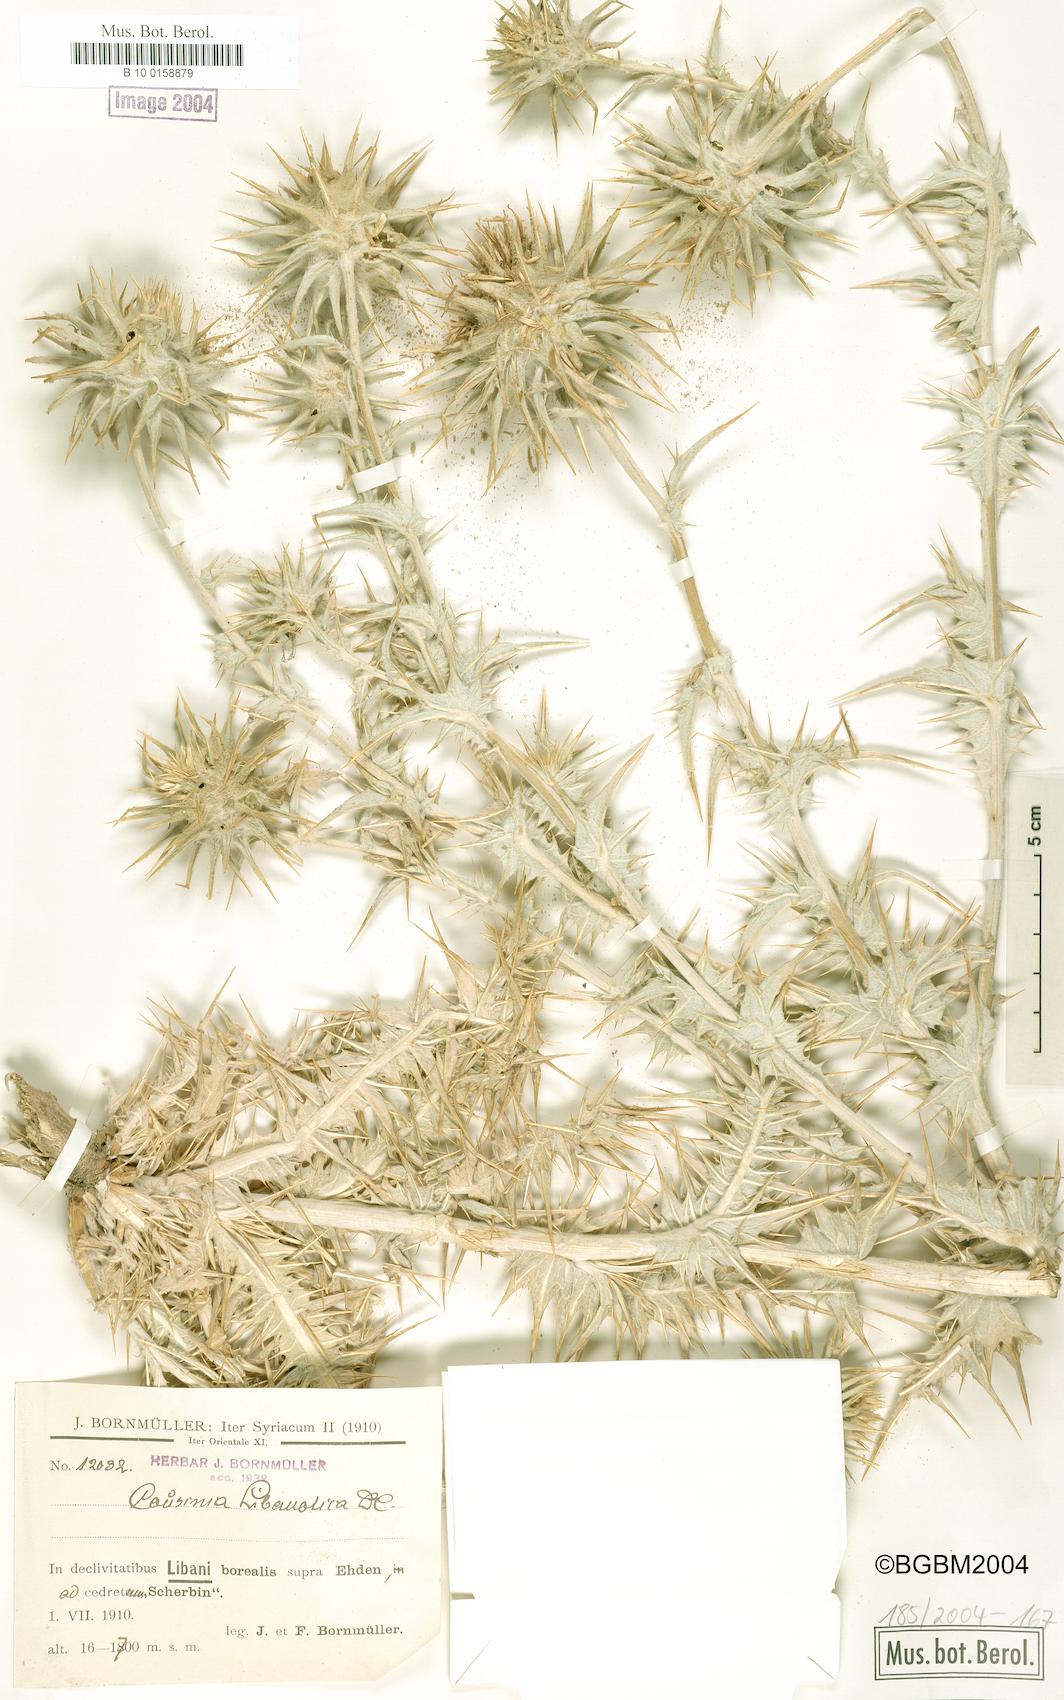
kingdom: Plantae
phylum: Tracheophyta
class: Magnoliopsida
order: Asterales
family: Asteraceae
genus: Cousinia
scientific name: Cousinia libanotica
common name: Lebanon cousinia
